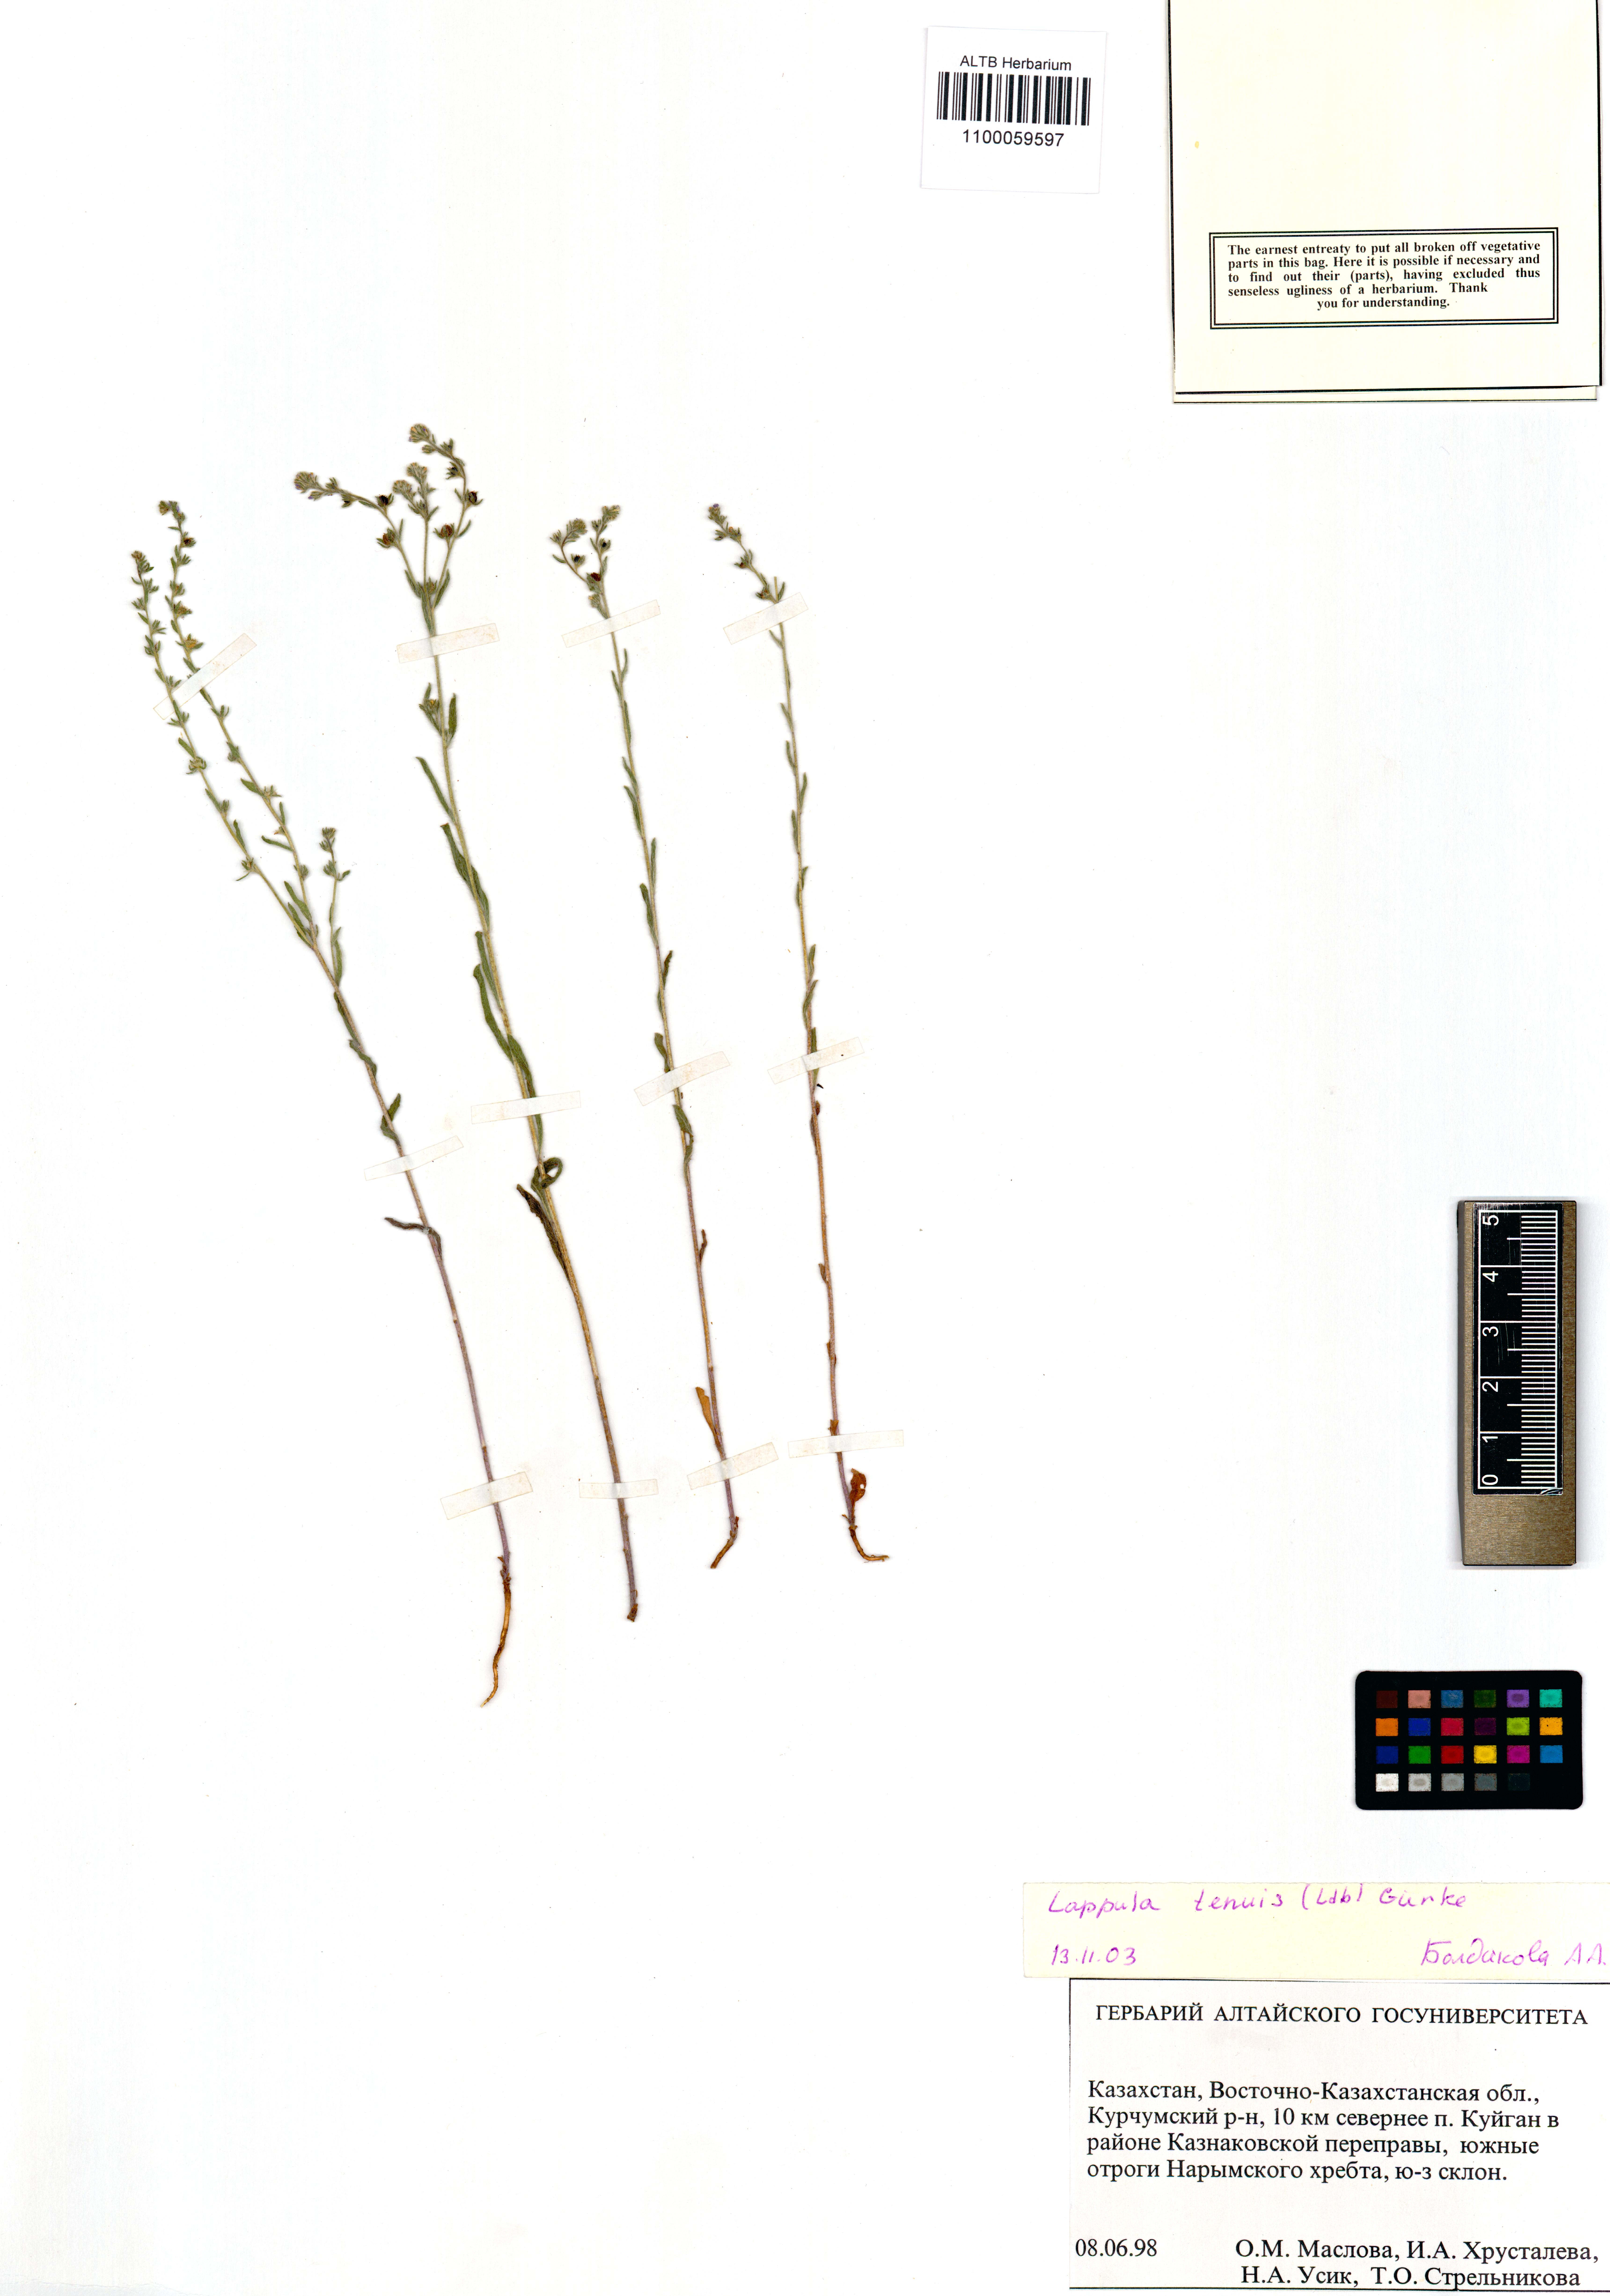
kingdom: Plantae
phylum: Tracheophyta
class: Magnoliopsida
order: Boraginales
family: Boraginaceae
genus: Lappula
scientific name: Lappula tenuis
